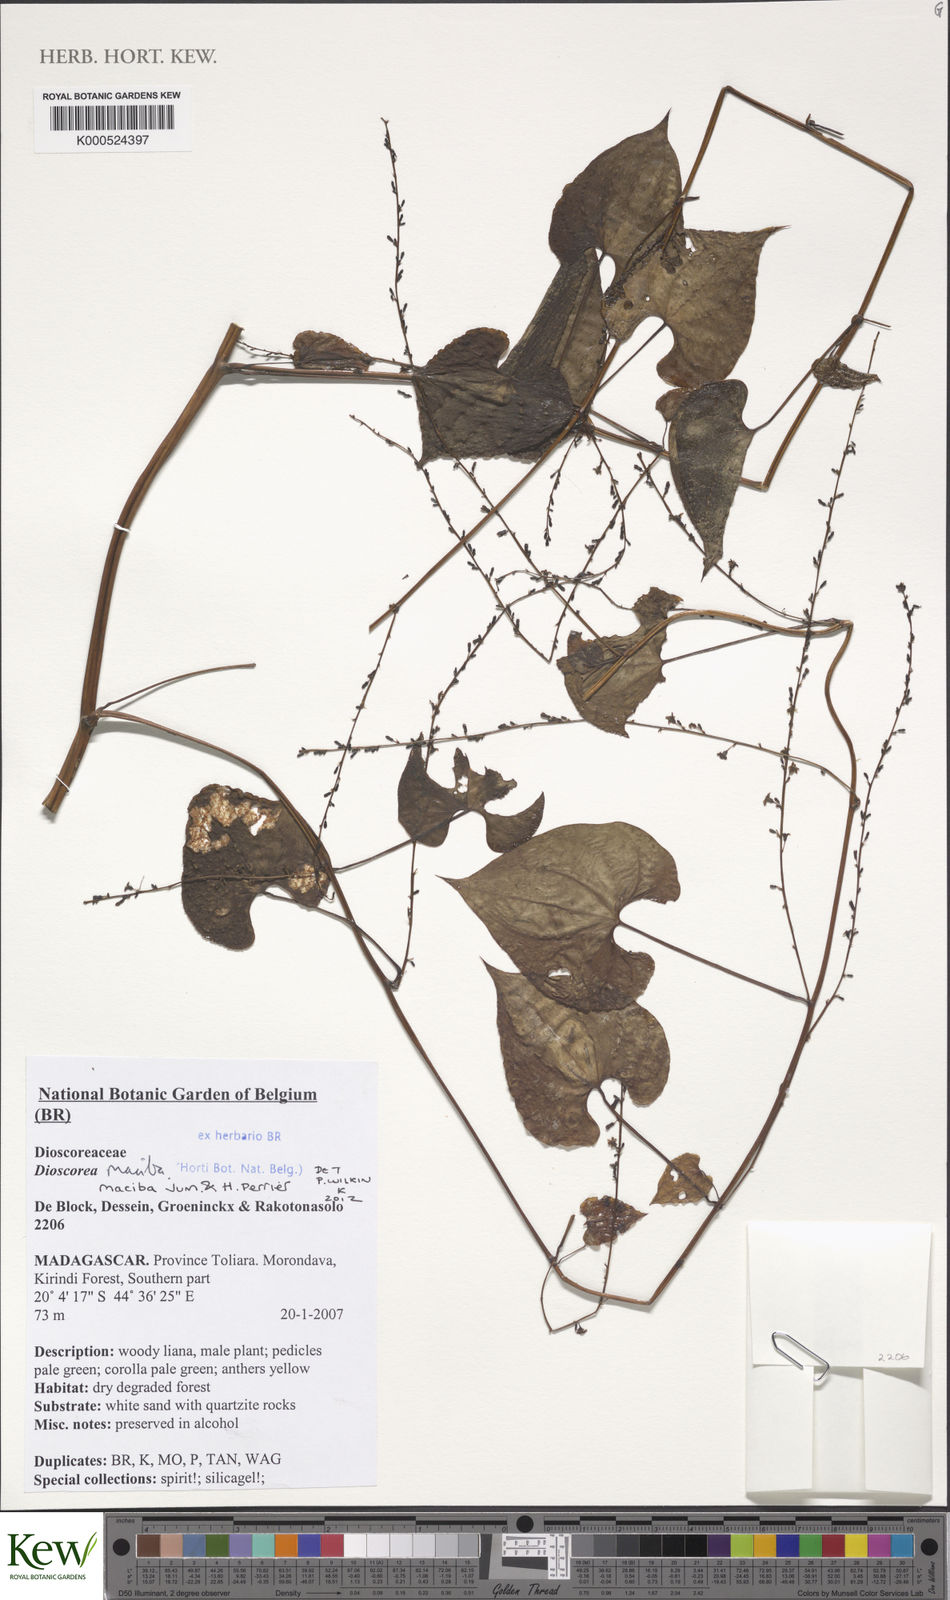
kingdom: Plantae
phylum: Tracheophyta
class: Liliopsida
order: Dioscoreales
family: Dioscoreaceae
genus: Dioscorea
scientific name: Dioscorea maciba
